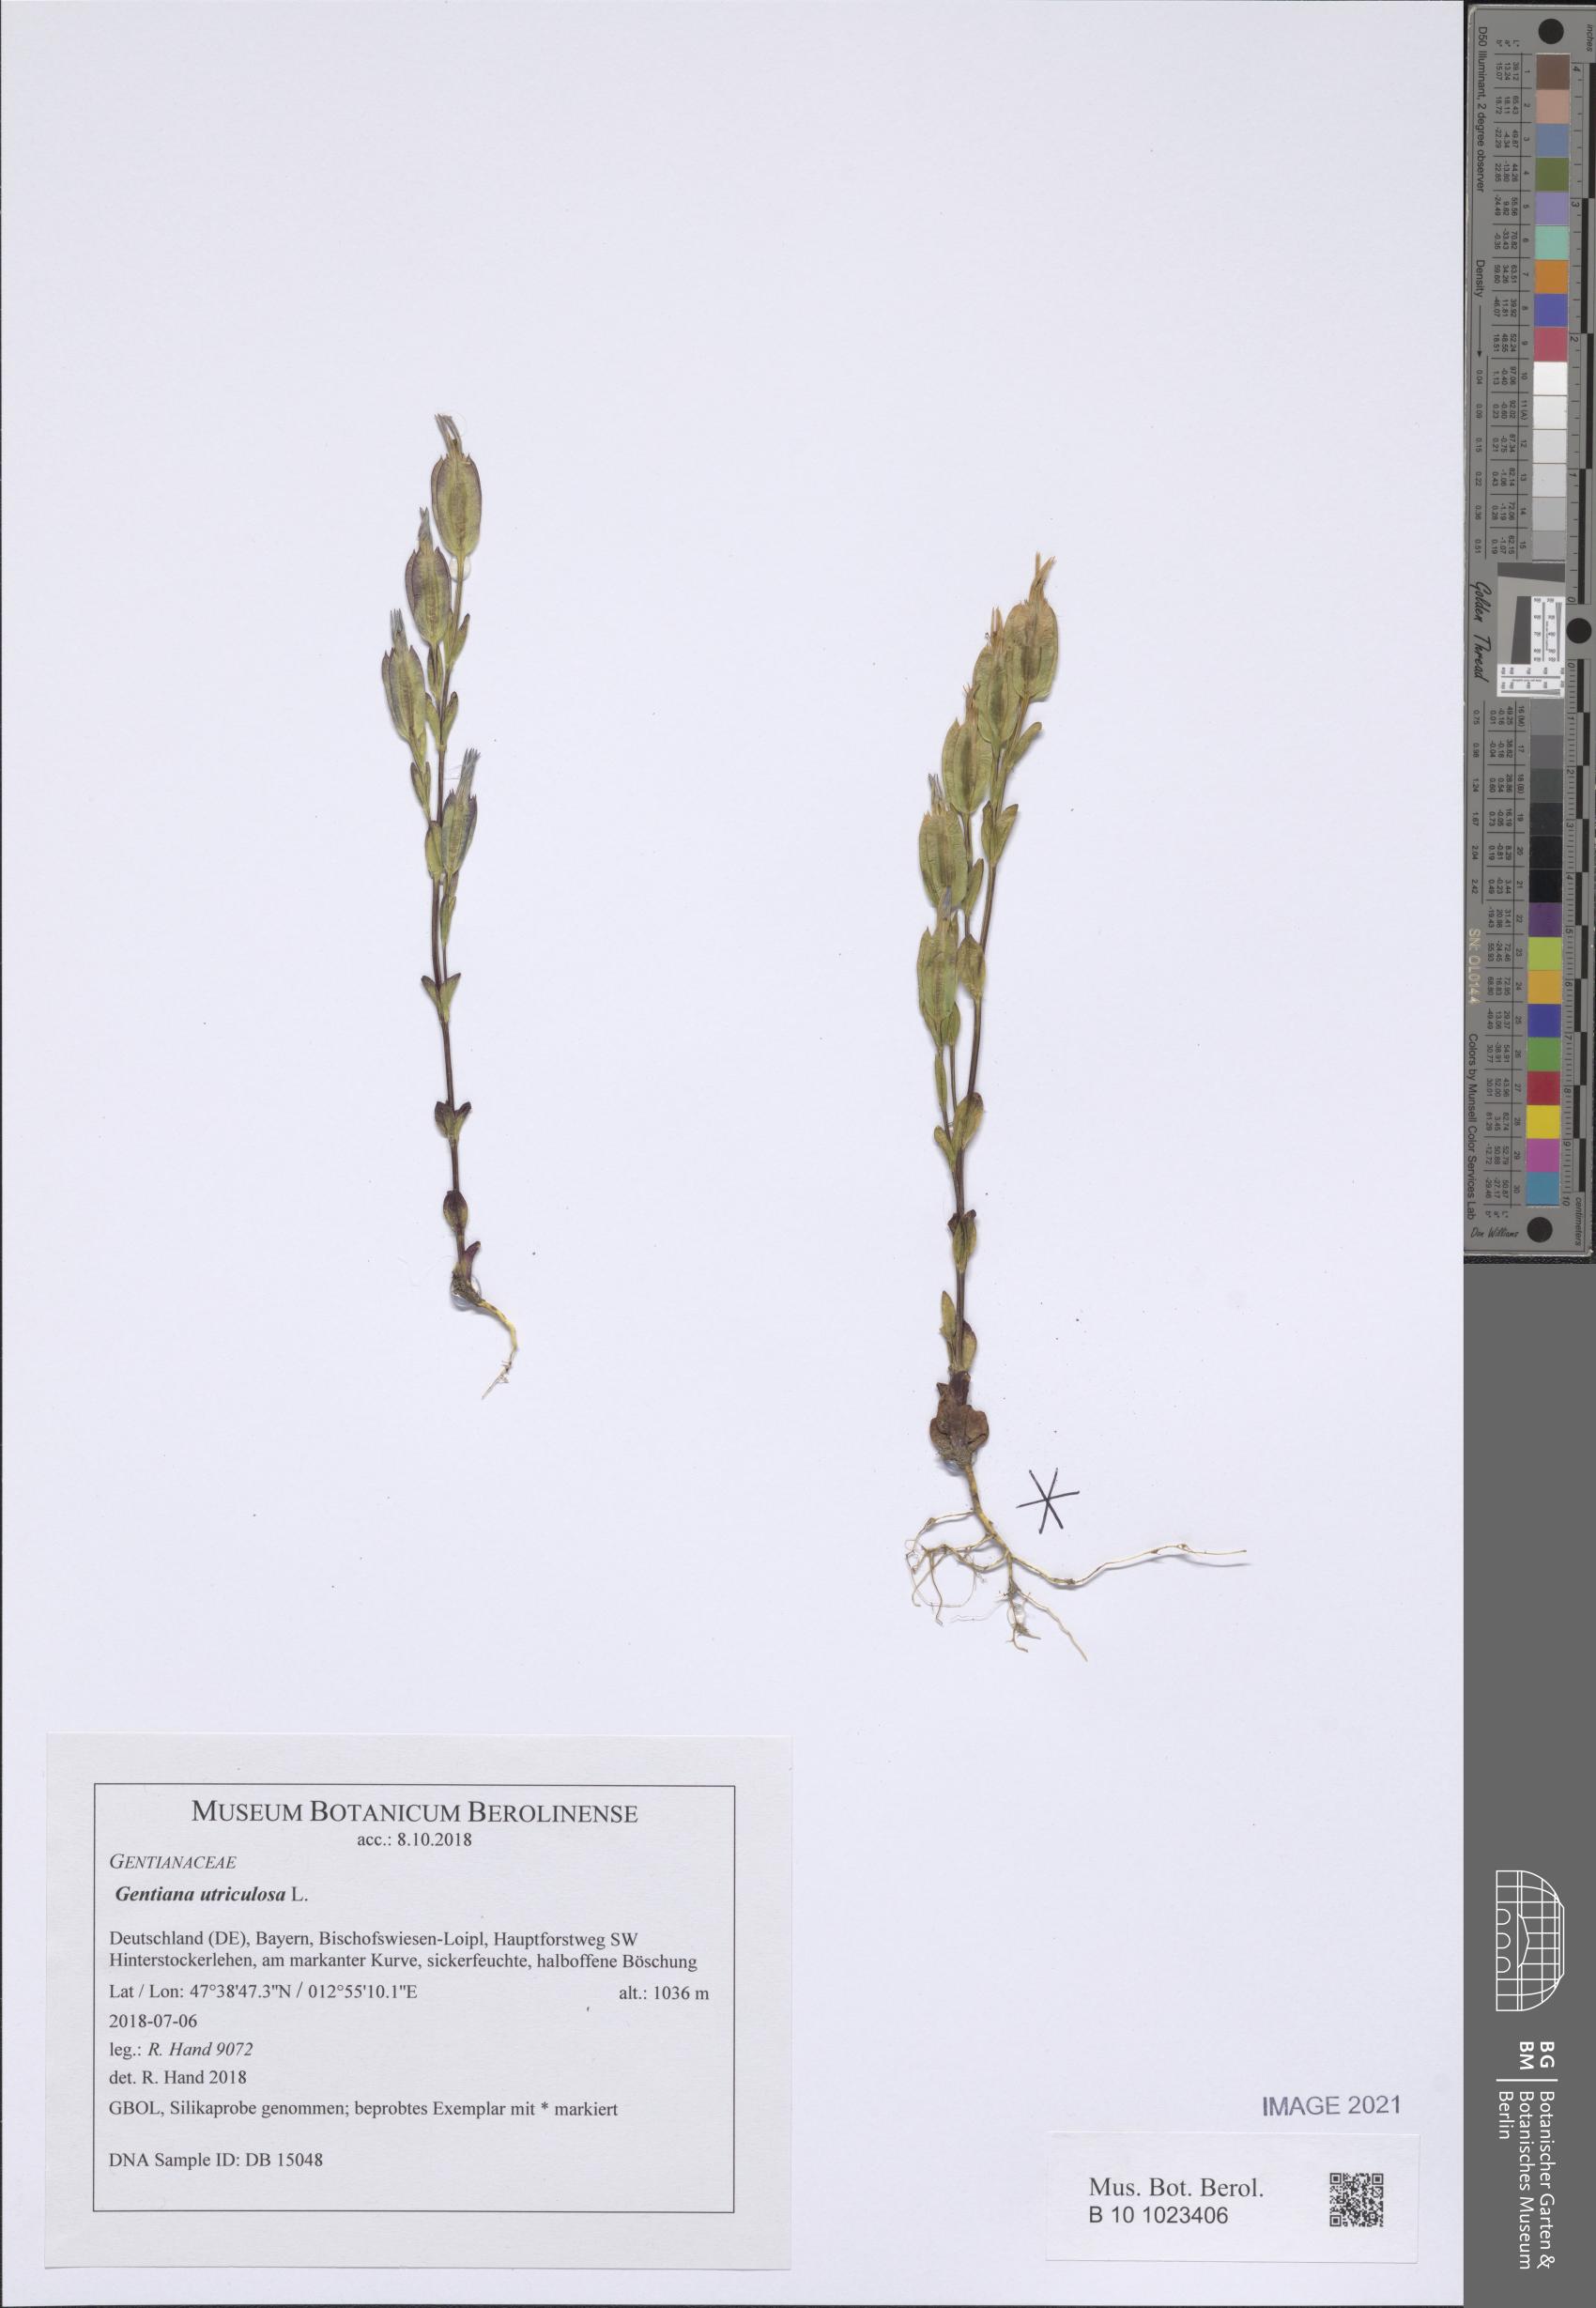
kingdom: Plantae
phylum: Tracheophyta
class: Magnoliopsida
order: Gentianales
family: Gentianaceae
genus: Gentiana
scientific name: Gentiana utriculosa
